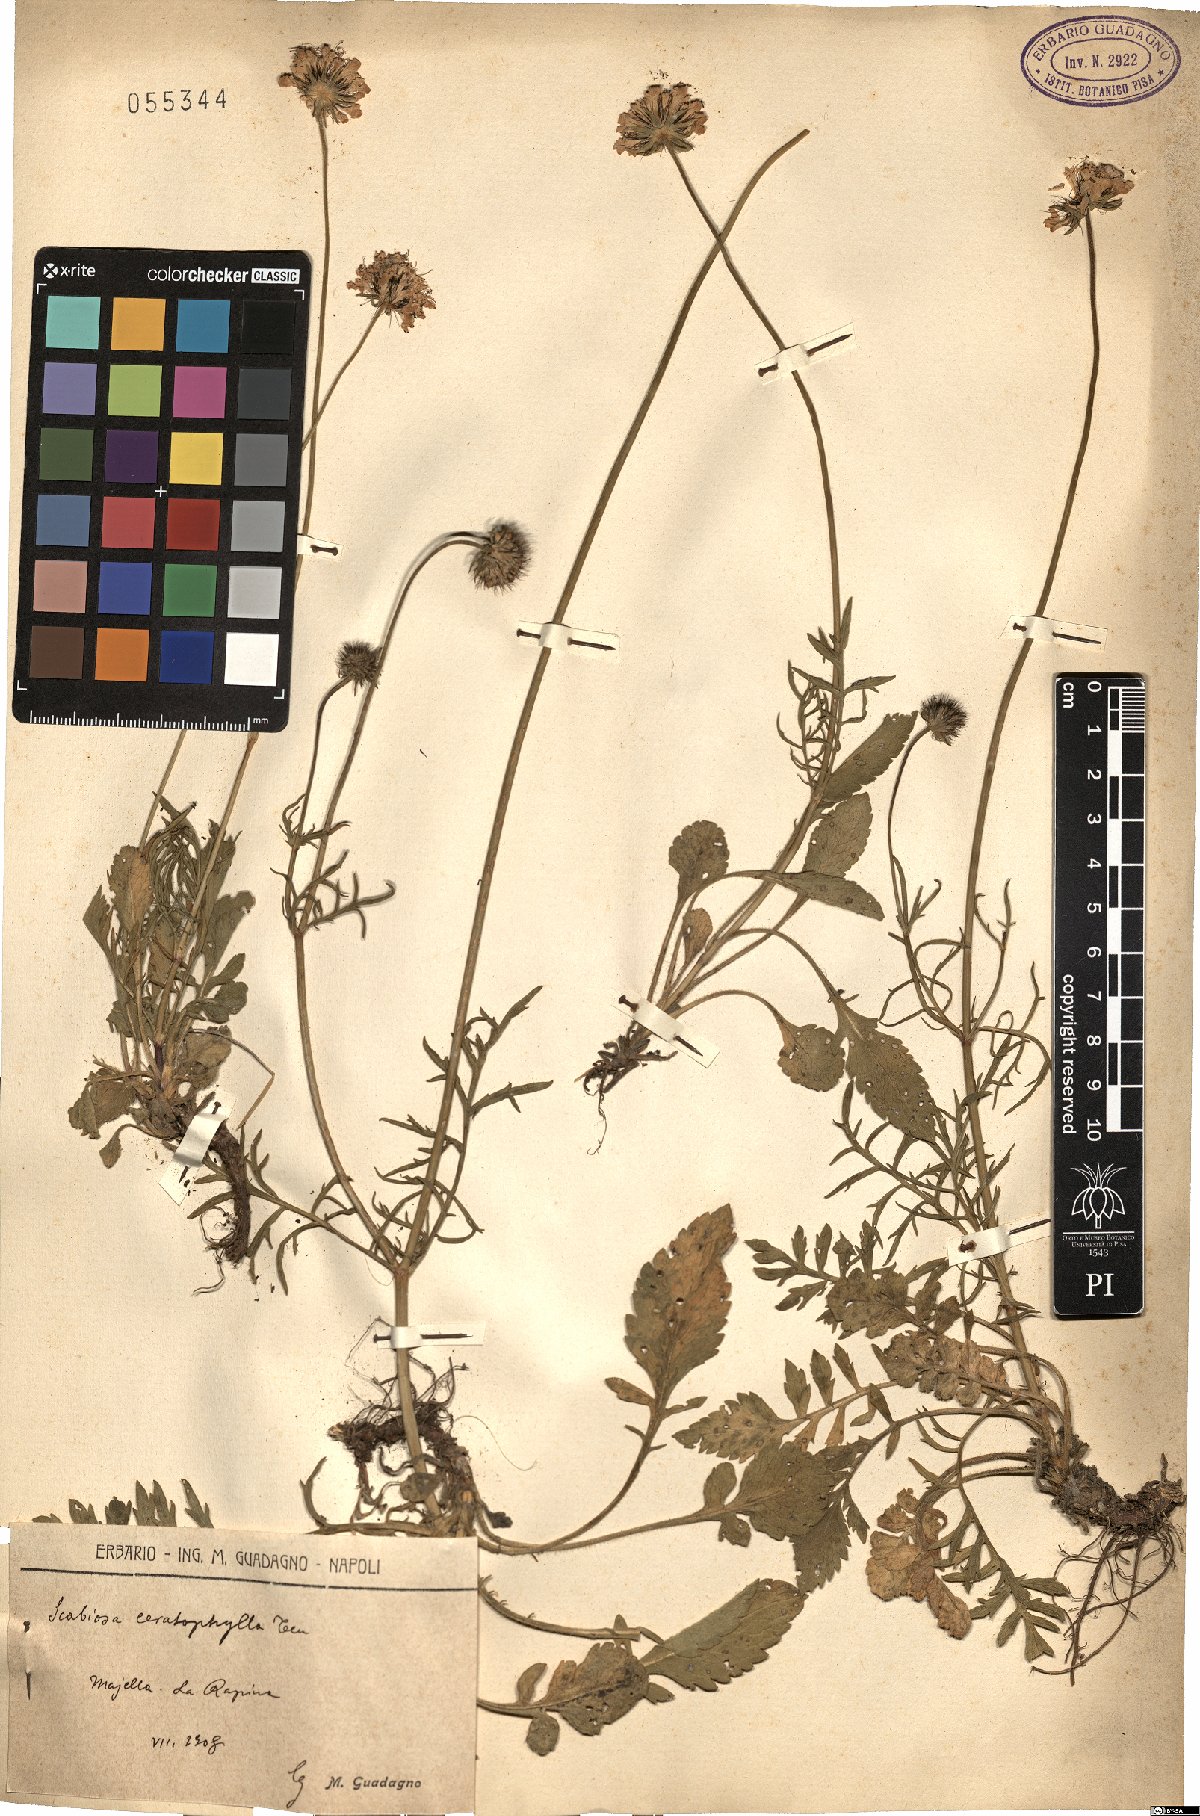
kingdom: Plantae
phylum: Tracheophyta
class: Magnoliopsida
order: Dipsacales
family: Caprifoliaceae
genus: Scabiosa
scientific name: Scabiosa triandra
